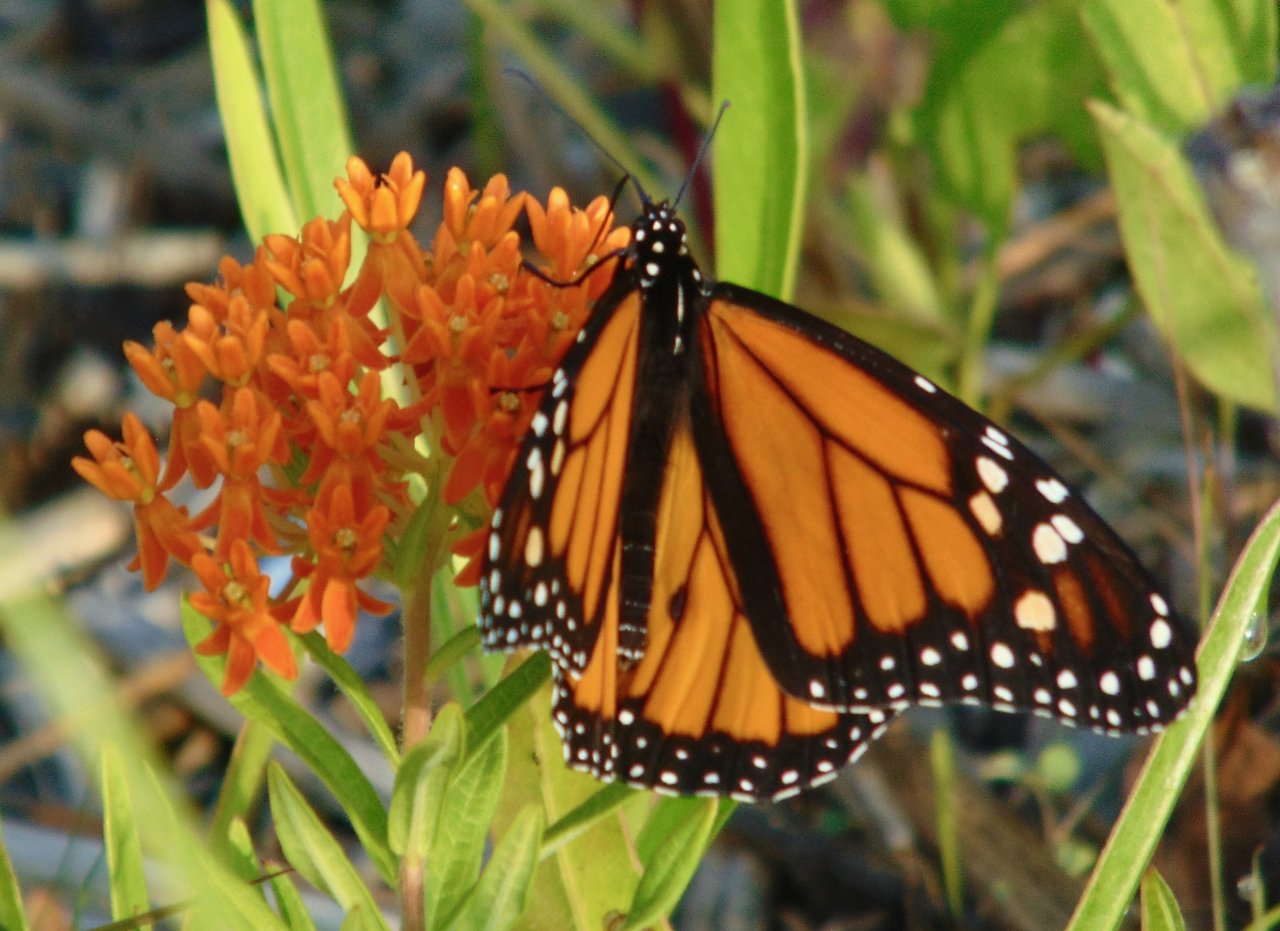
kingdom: Animalia
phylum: Arthropoda
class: Insecta
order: Lepidoptera
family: Nymphalidae
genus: Danaus
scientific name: Danaus plexippus
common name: Monarch
